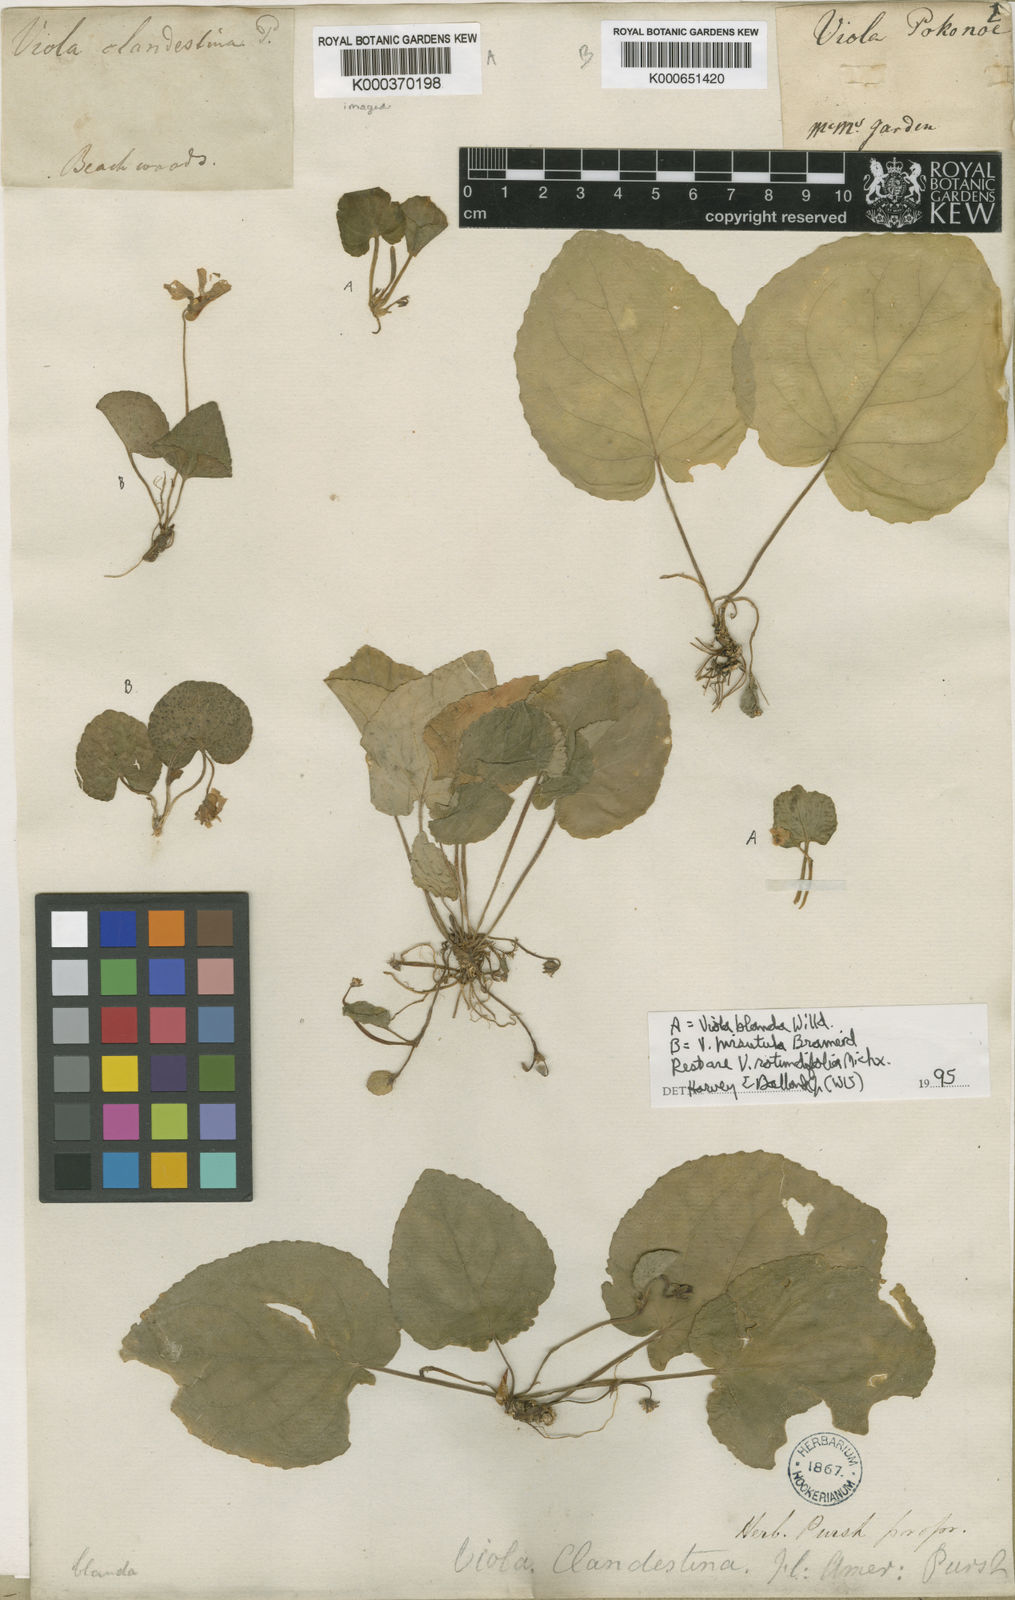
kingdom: Plantae
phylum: Tracheophyta
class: Magnoliopsida
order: Malpighiales
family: Violaceae
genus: Viola
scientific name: Viola rotundifolia
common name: Early yellow violet
